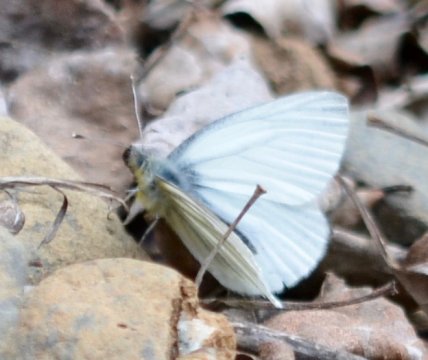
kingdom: Animalia
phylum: Arthropoda
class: Insecta
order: Lepidoptera
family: Pieridae
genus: Pieris
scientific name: Pieris angelika
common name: Arctic White
